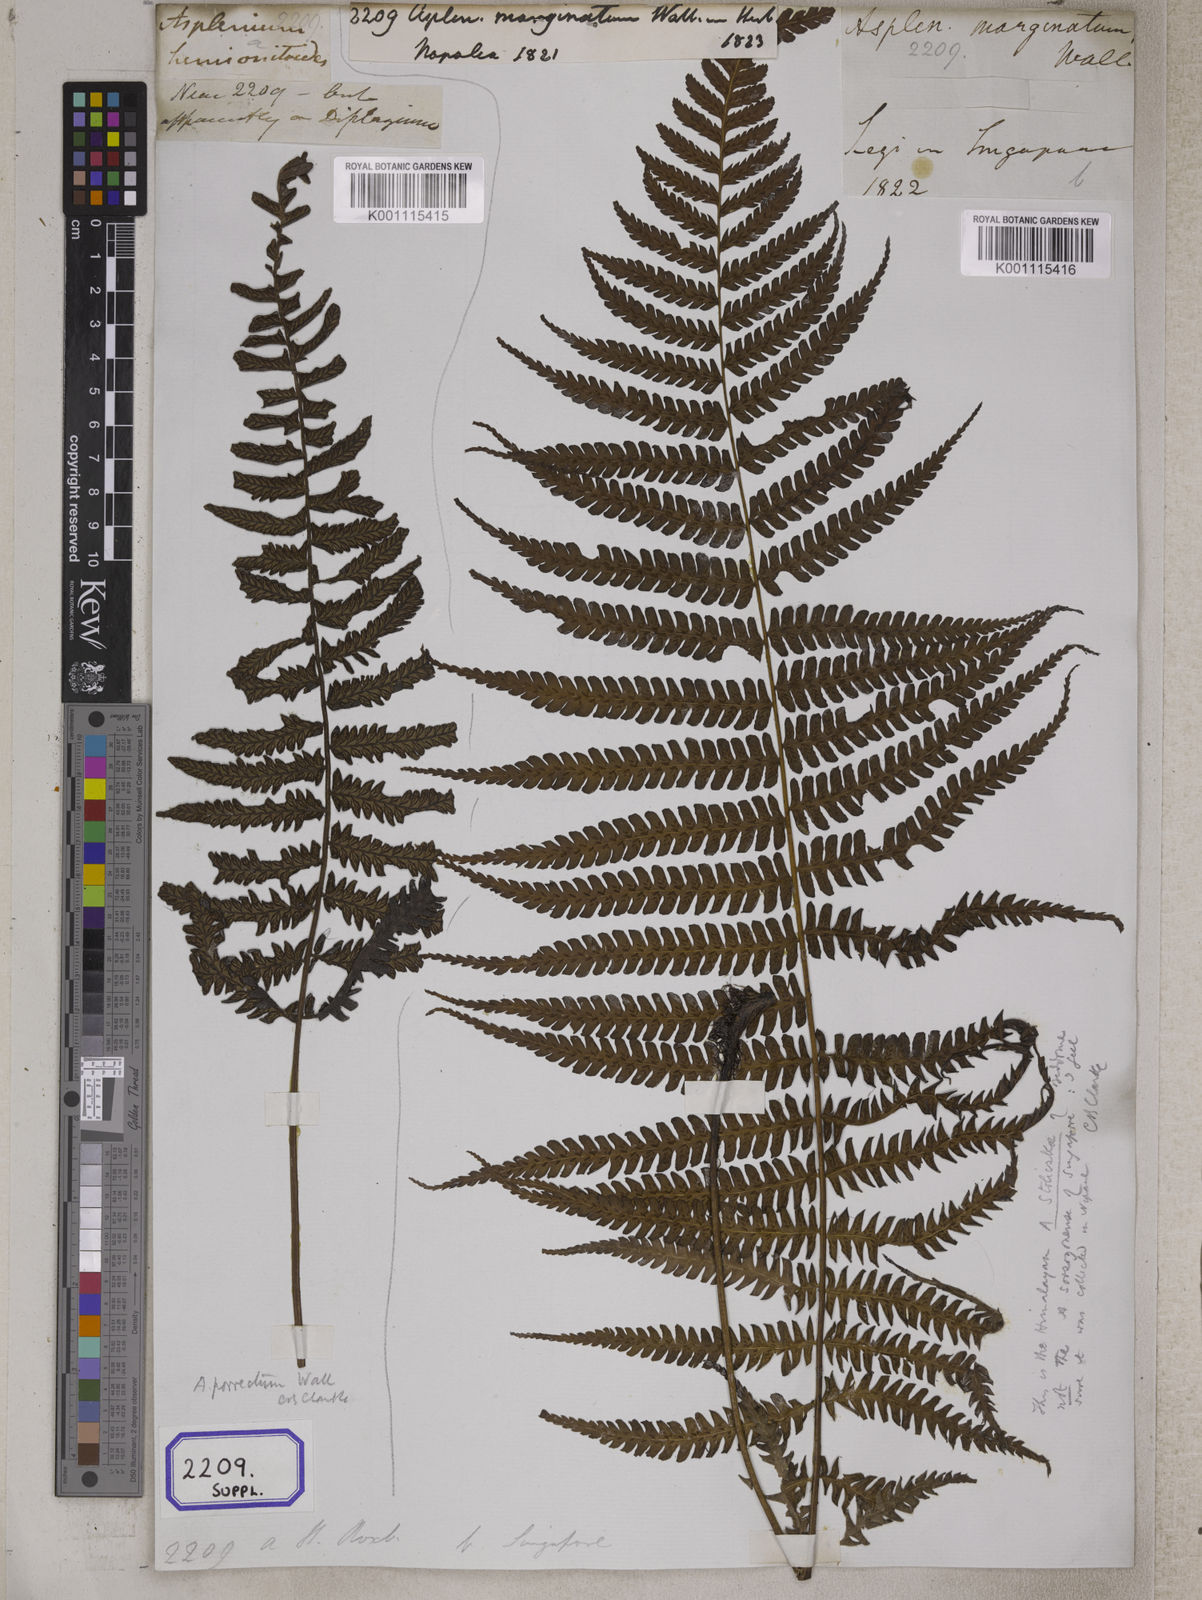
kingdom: Plantae
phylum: Tracheophyta
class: Polypodiopsida
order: Polypodiales
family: Aspleniaceae
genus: Asplenium
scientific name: Asplenium
